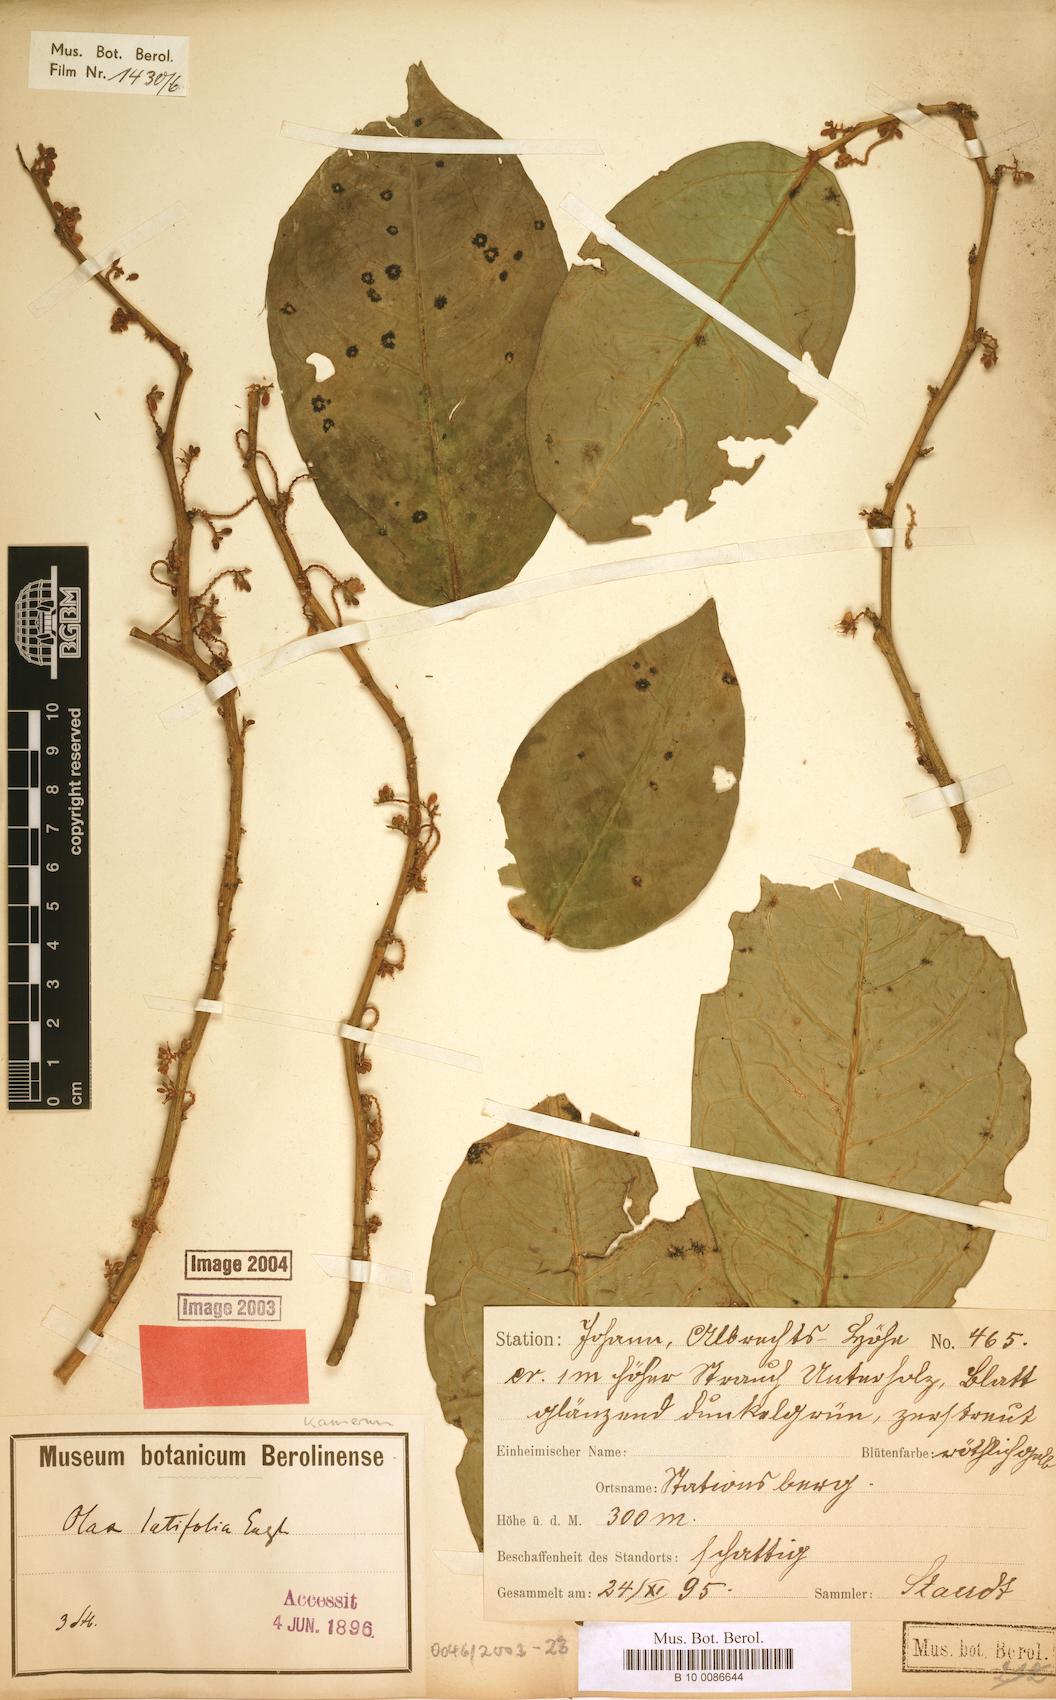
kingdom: Plantae
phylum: Tracheophyta
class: Magnoliopsida
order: Santalales
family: Olacaceae
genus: Olax
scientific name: Olax latifolia
